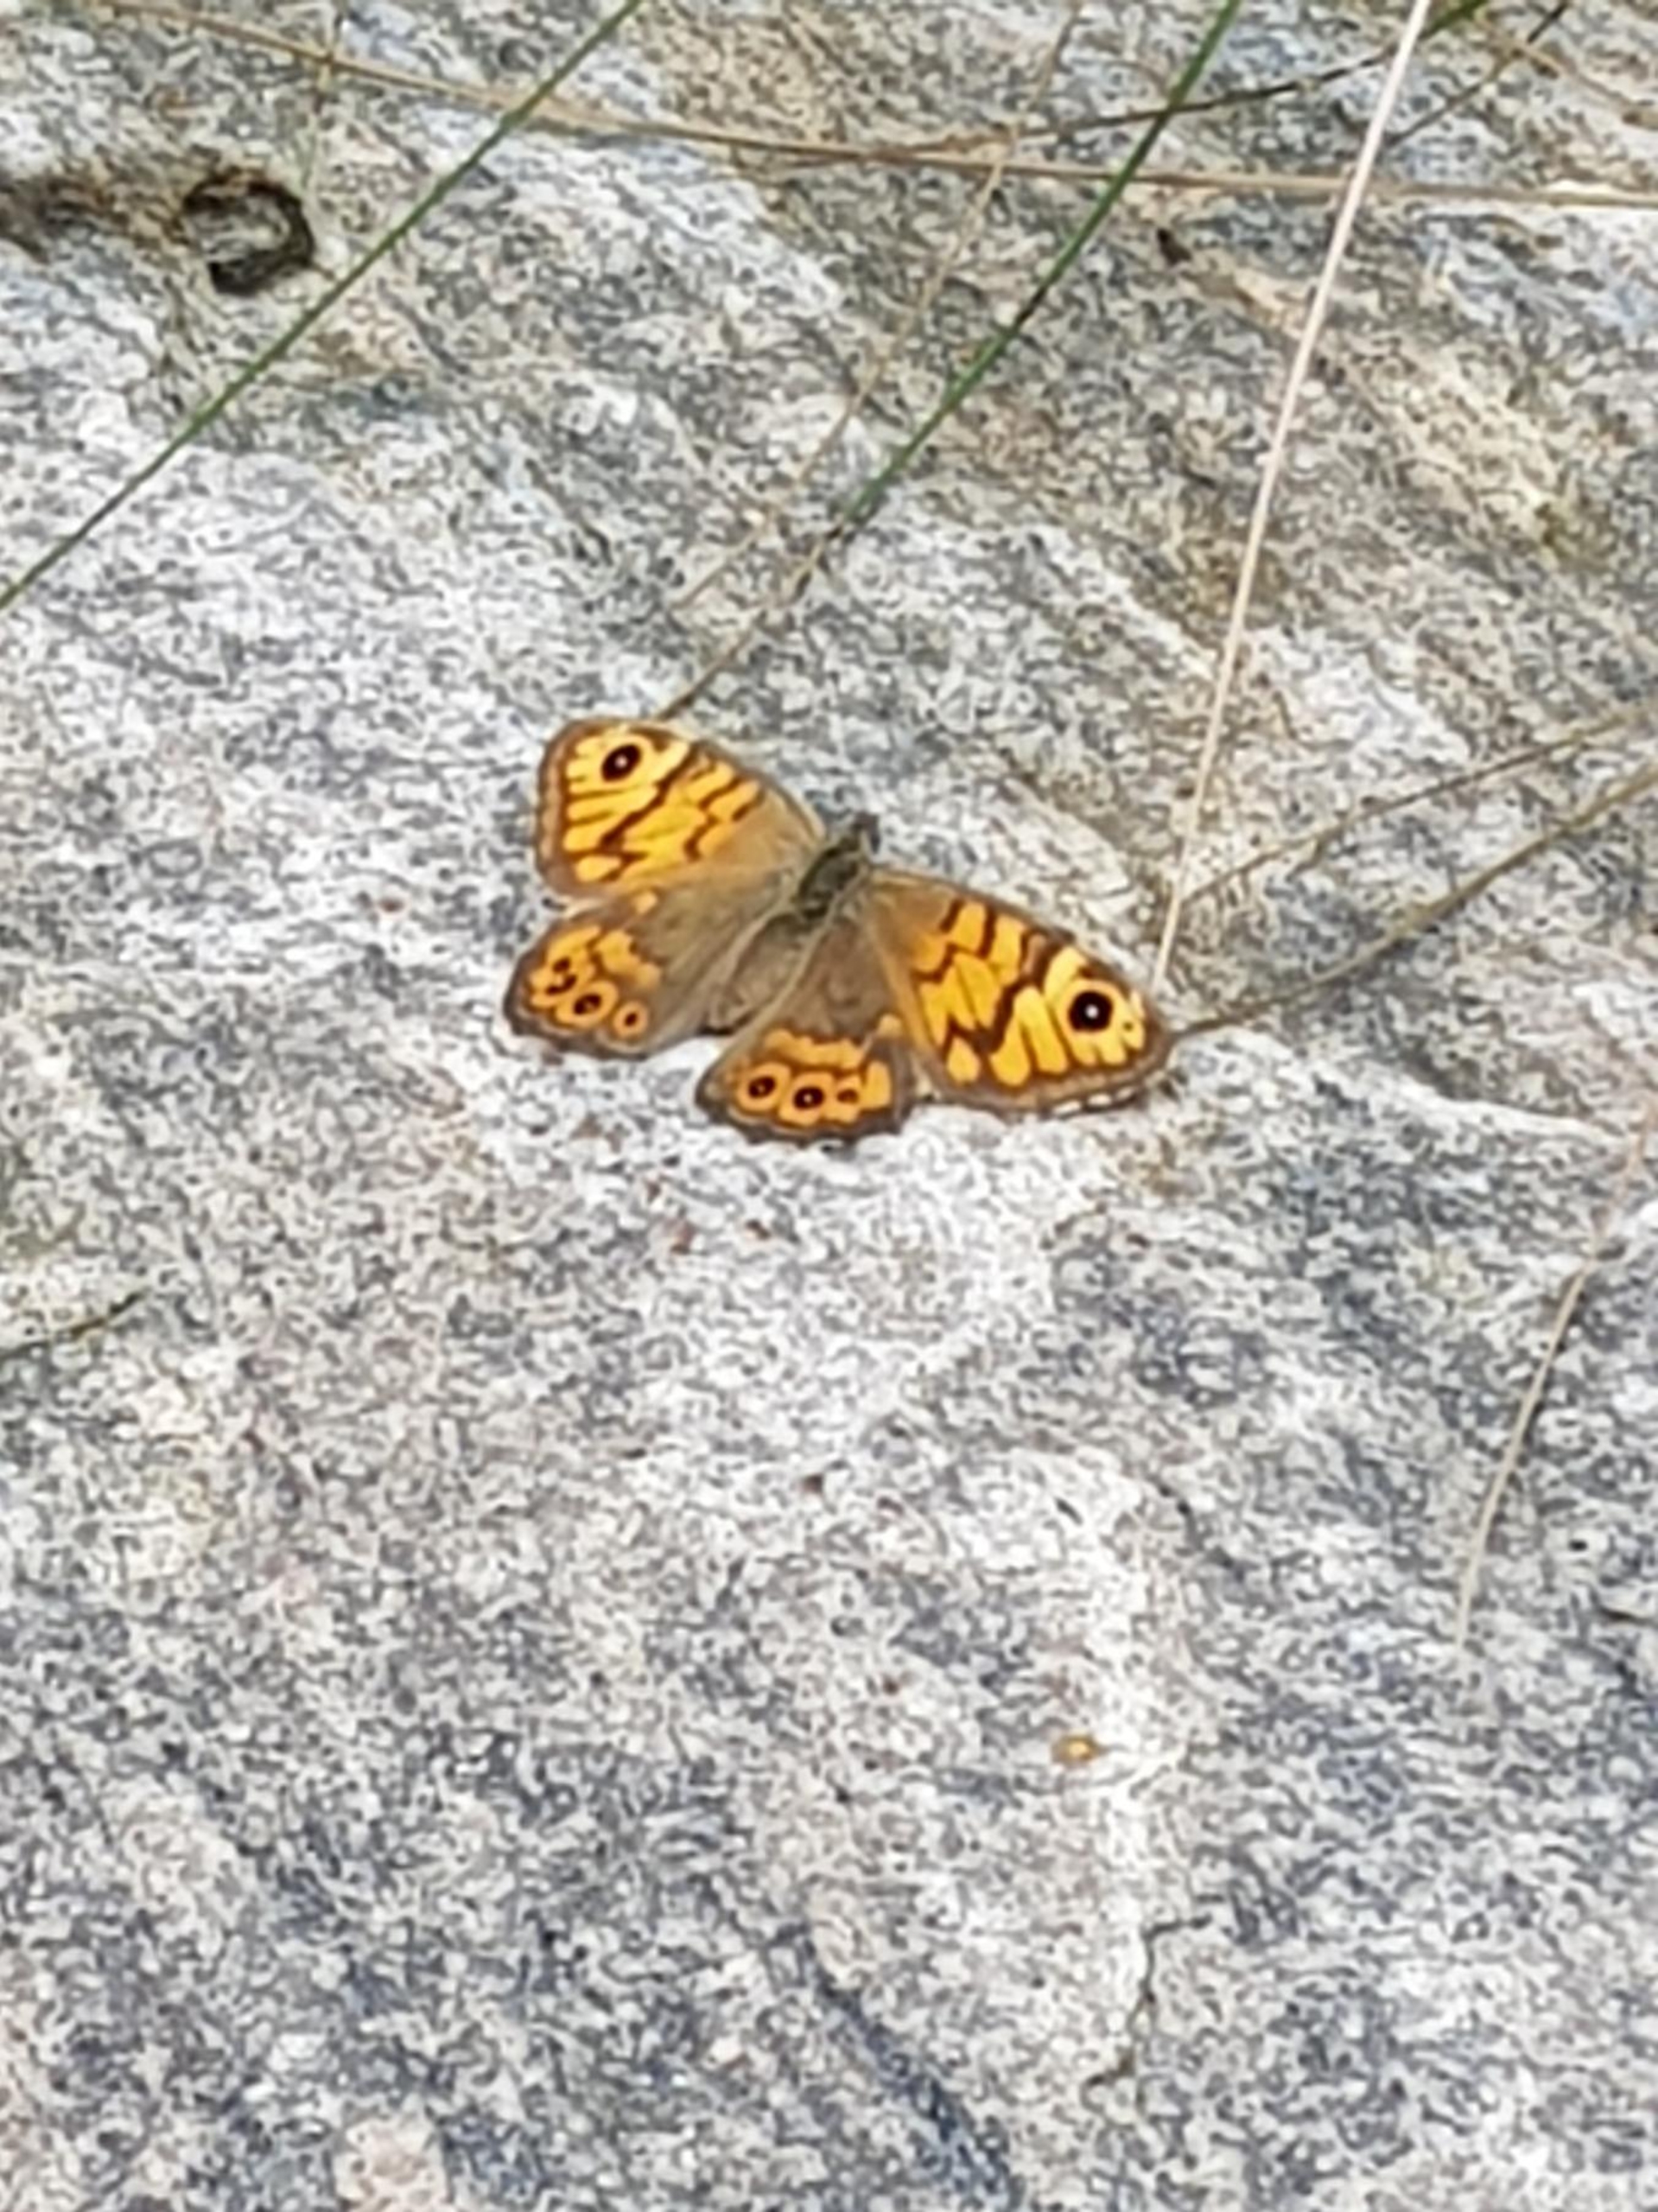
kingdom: Animalia
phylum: Arthropoda
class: Insecta
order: Lepidoptera
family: Nymphalidae
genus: Pararge
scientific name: Pararge Lasiommata megera
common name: Vejrandøje
